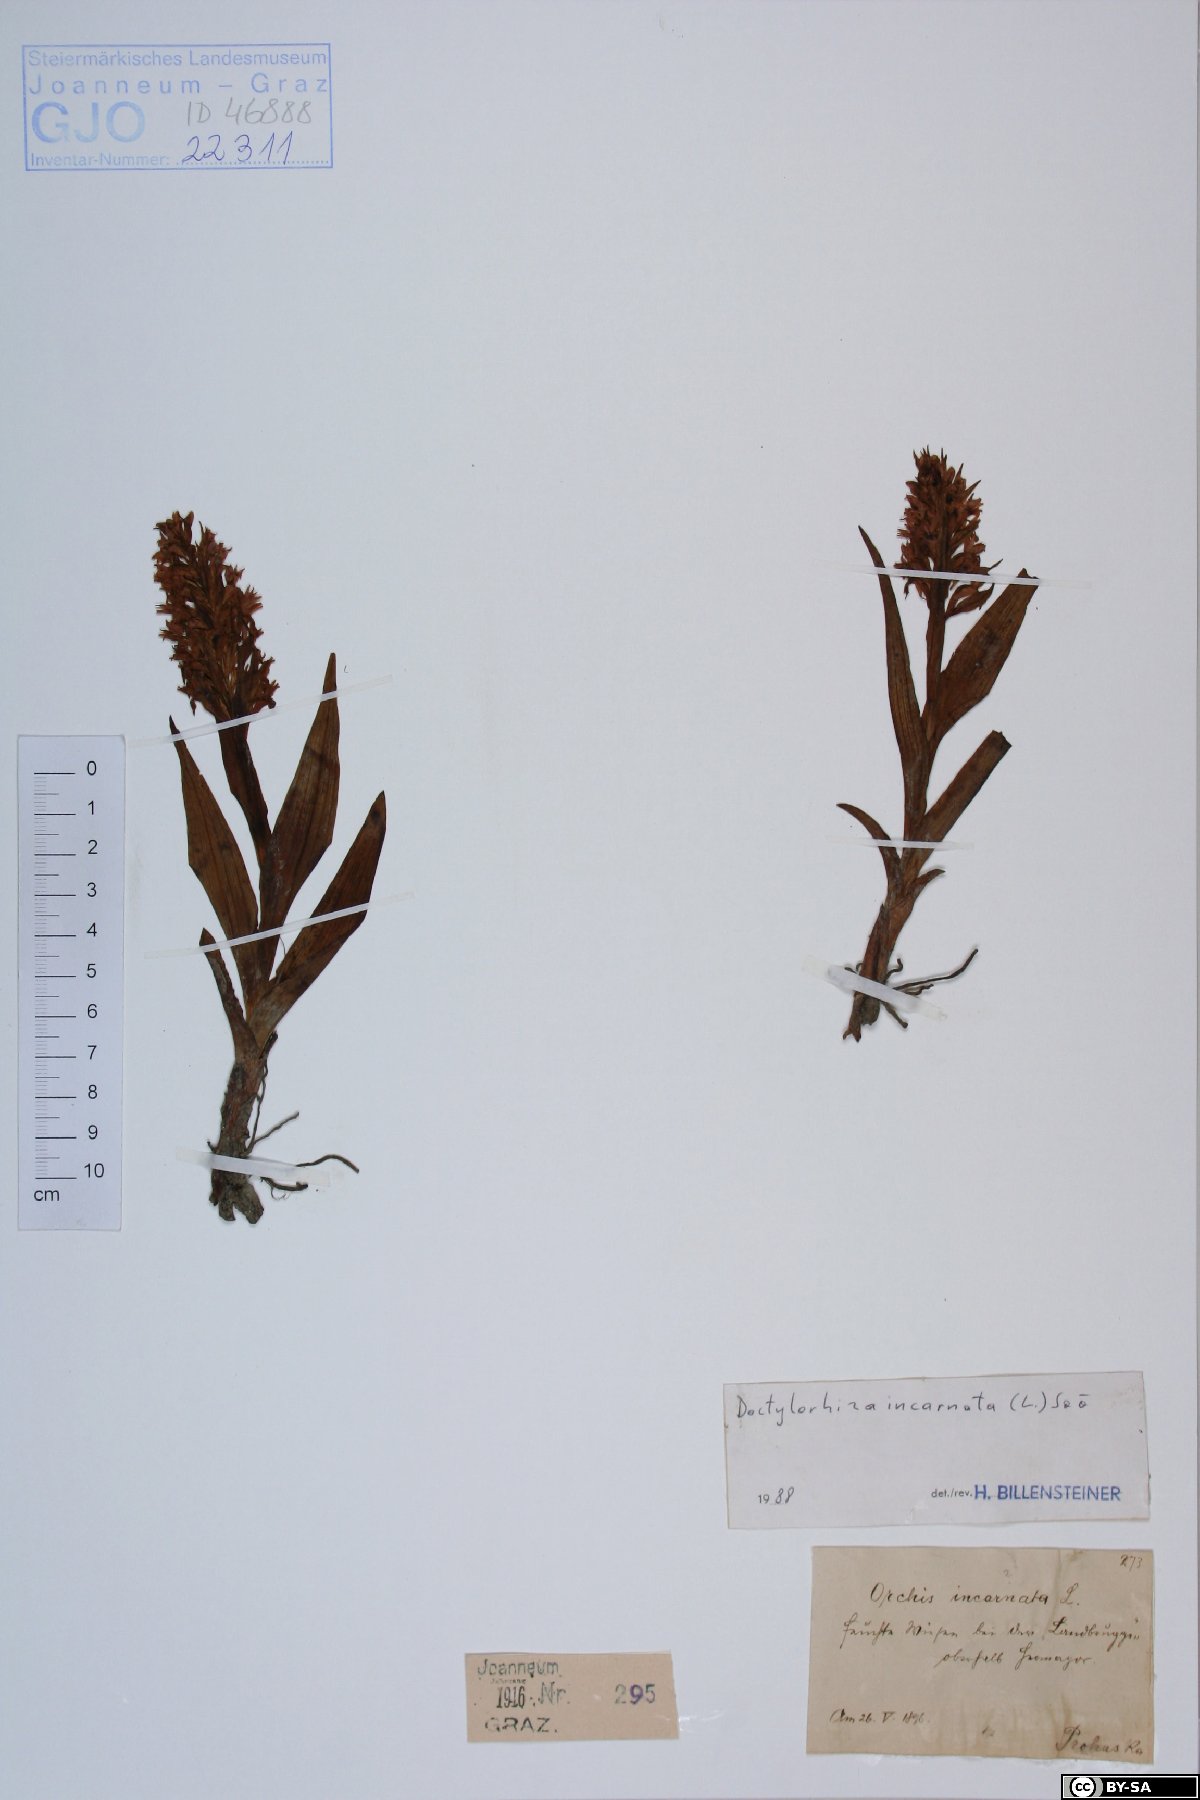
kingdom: Plantae
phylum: Tracheophyta
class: Liliopsida
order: Asparagales
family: Orchidaceae
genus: Dactylorhiza
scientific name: Dactylorhiza incarnata
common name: Early marsh-orchid
